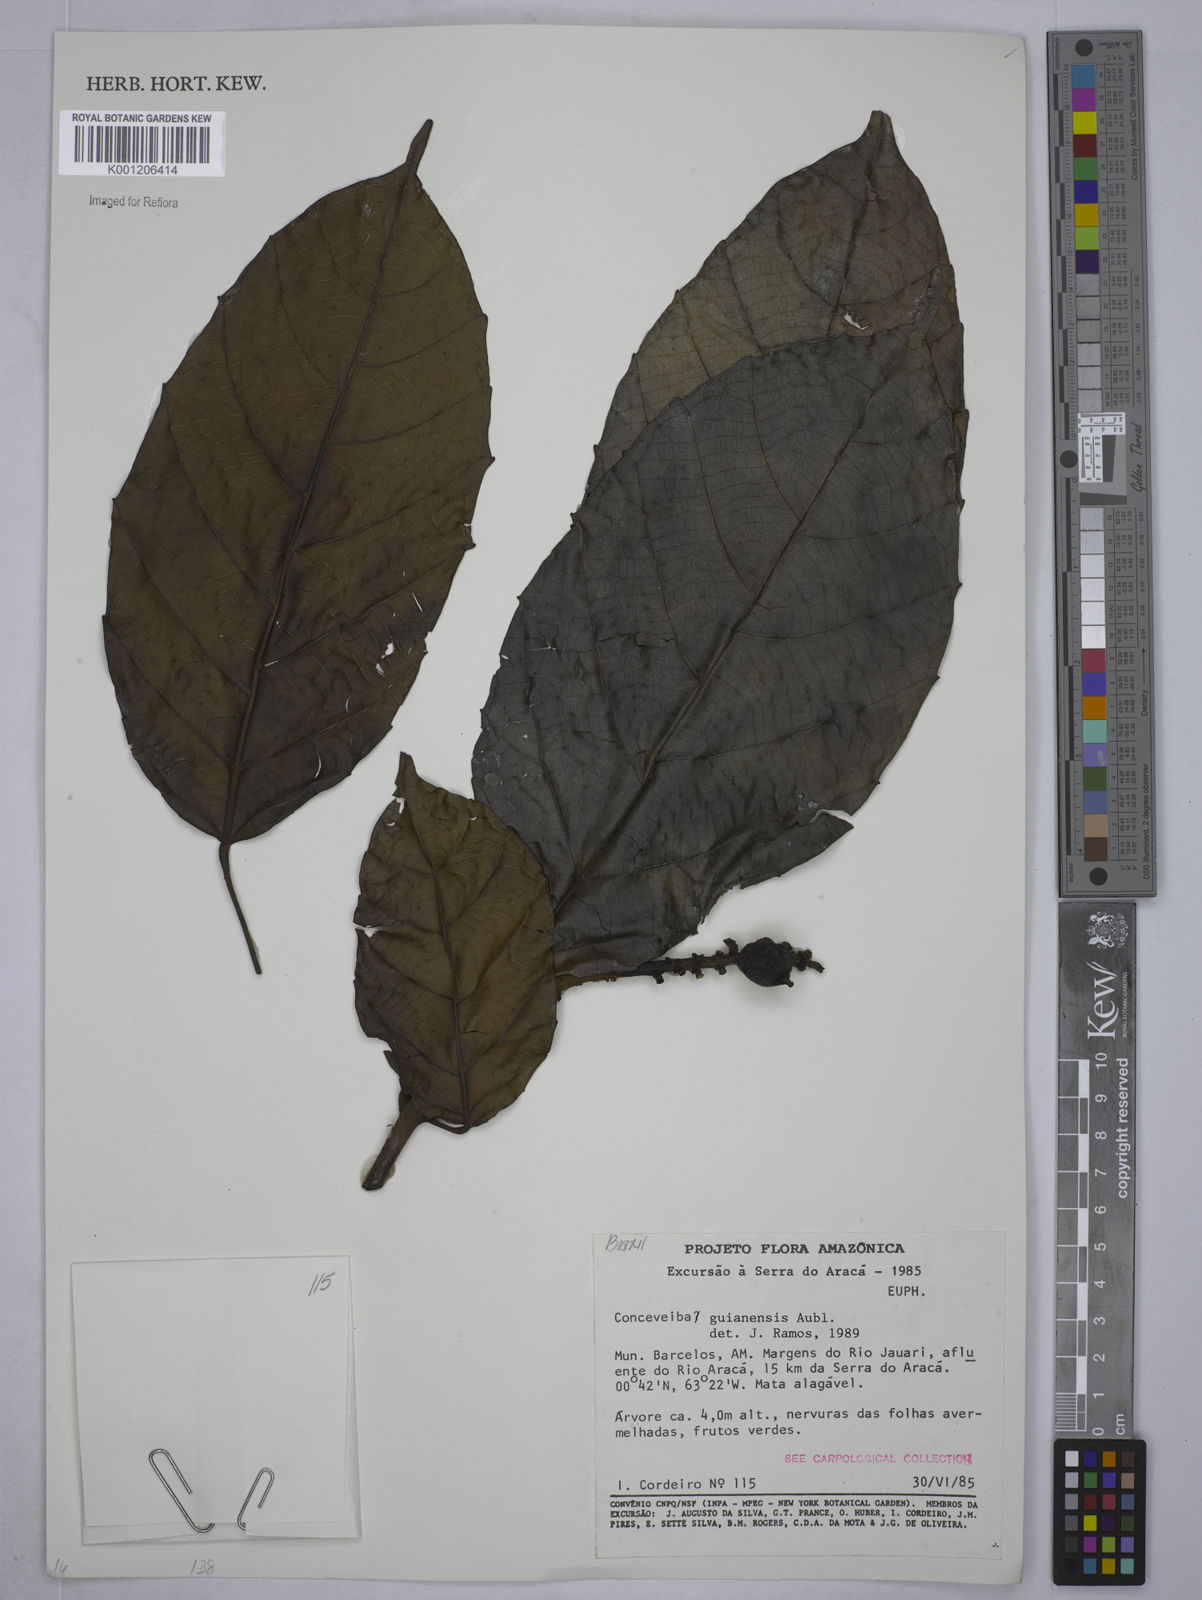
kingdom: Plantae
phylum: Tracheophyta
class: Magnoliopsida
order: Malpighiales
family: Euphorbiaceae
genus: Conceveiba
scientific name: Conceveiba guianensis
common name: Poatoru
